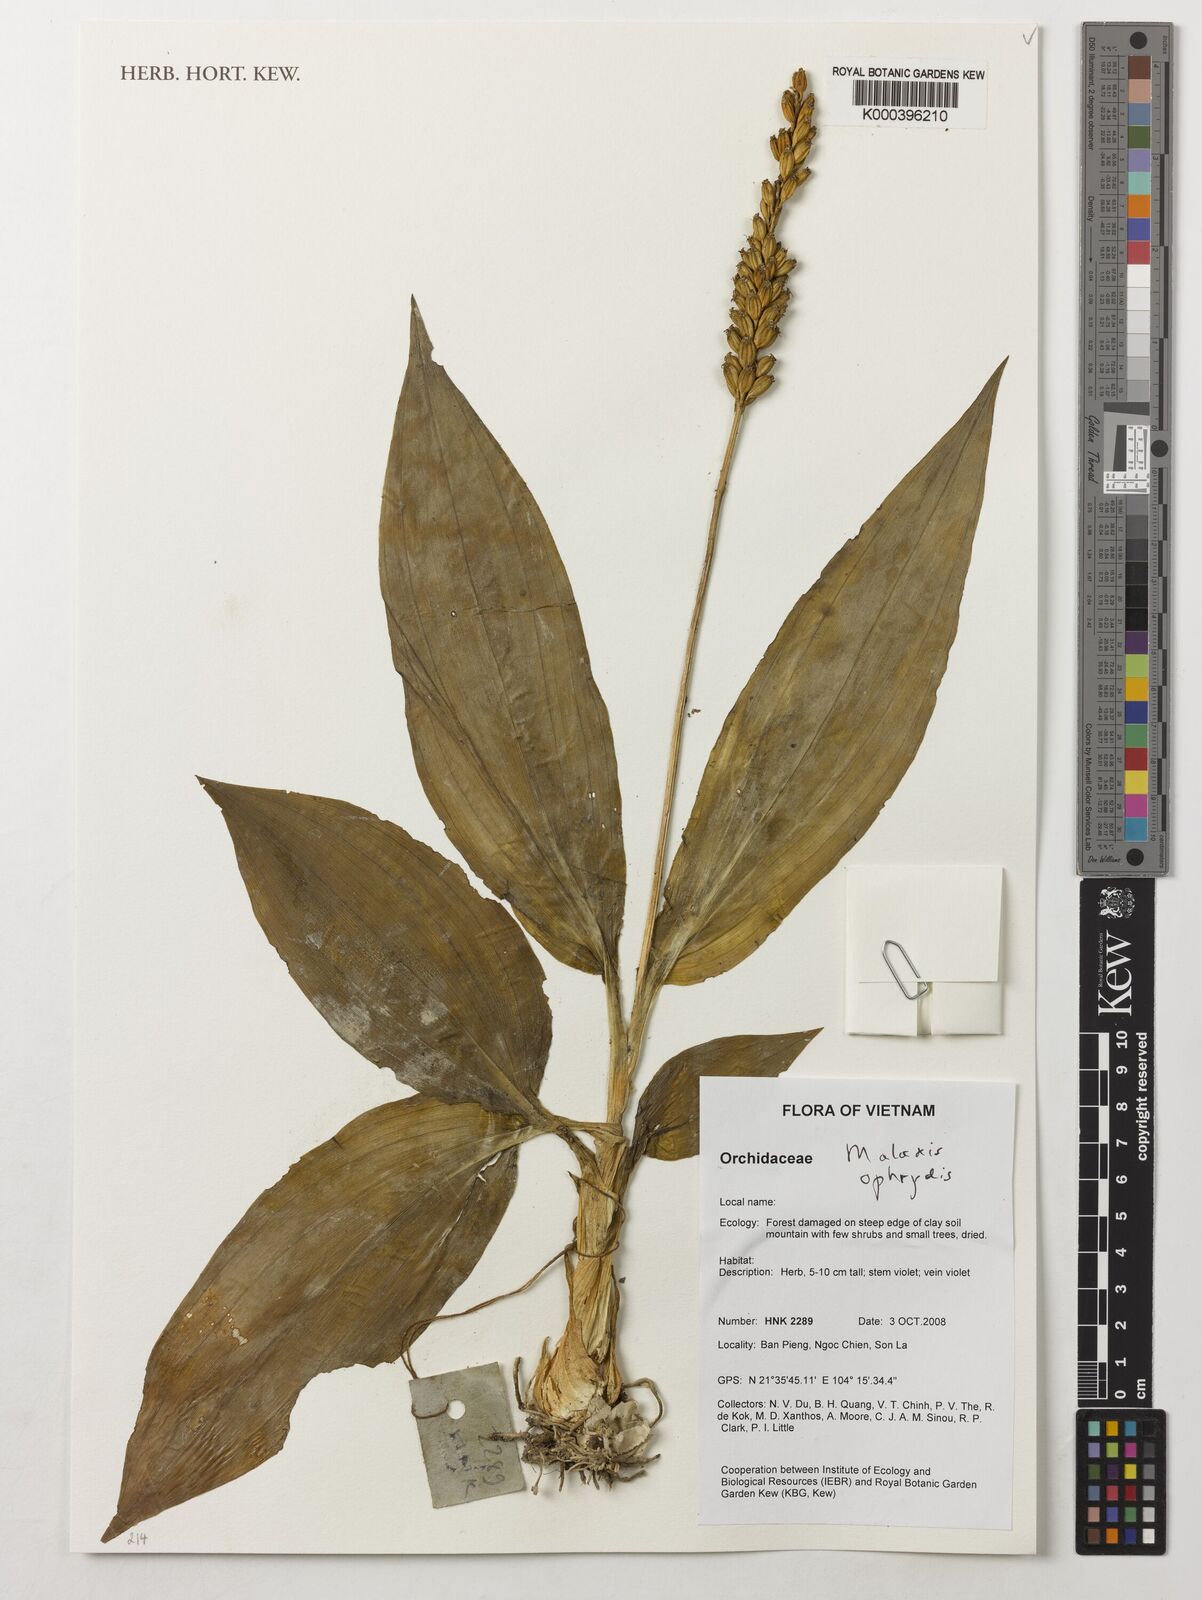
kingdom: Plantae
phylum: Tracheophyta
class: Liliopsida
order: Asparagales
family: Orchidaceae
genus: Malaxis
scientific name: Malaxis
